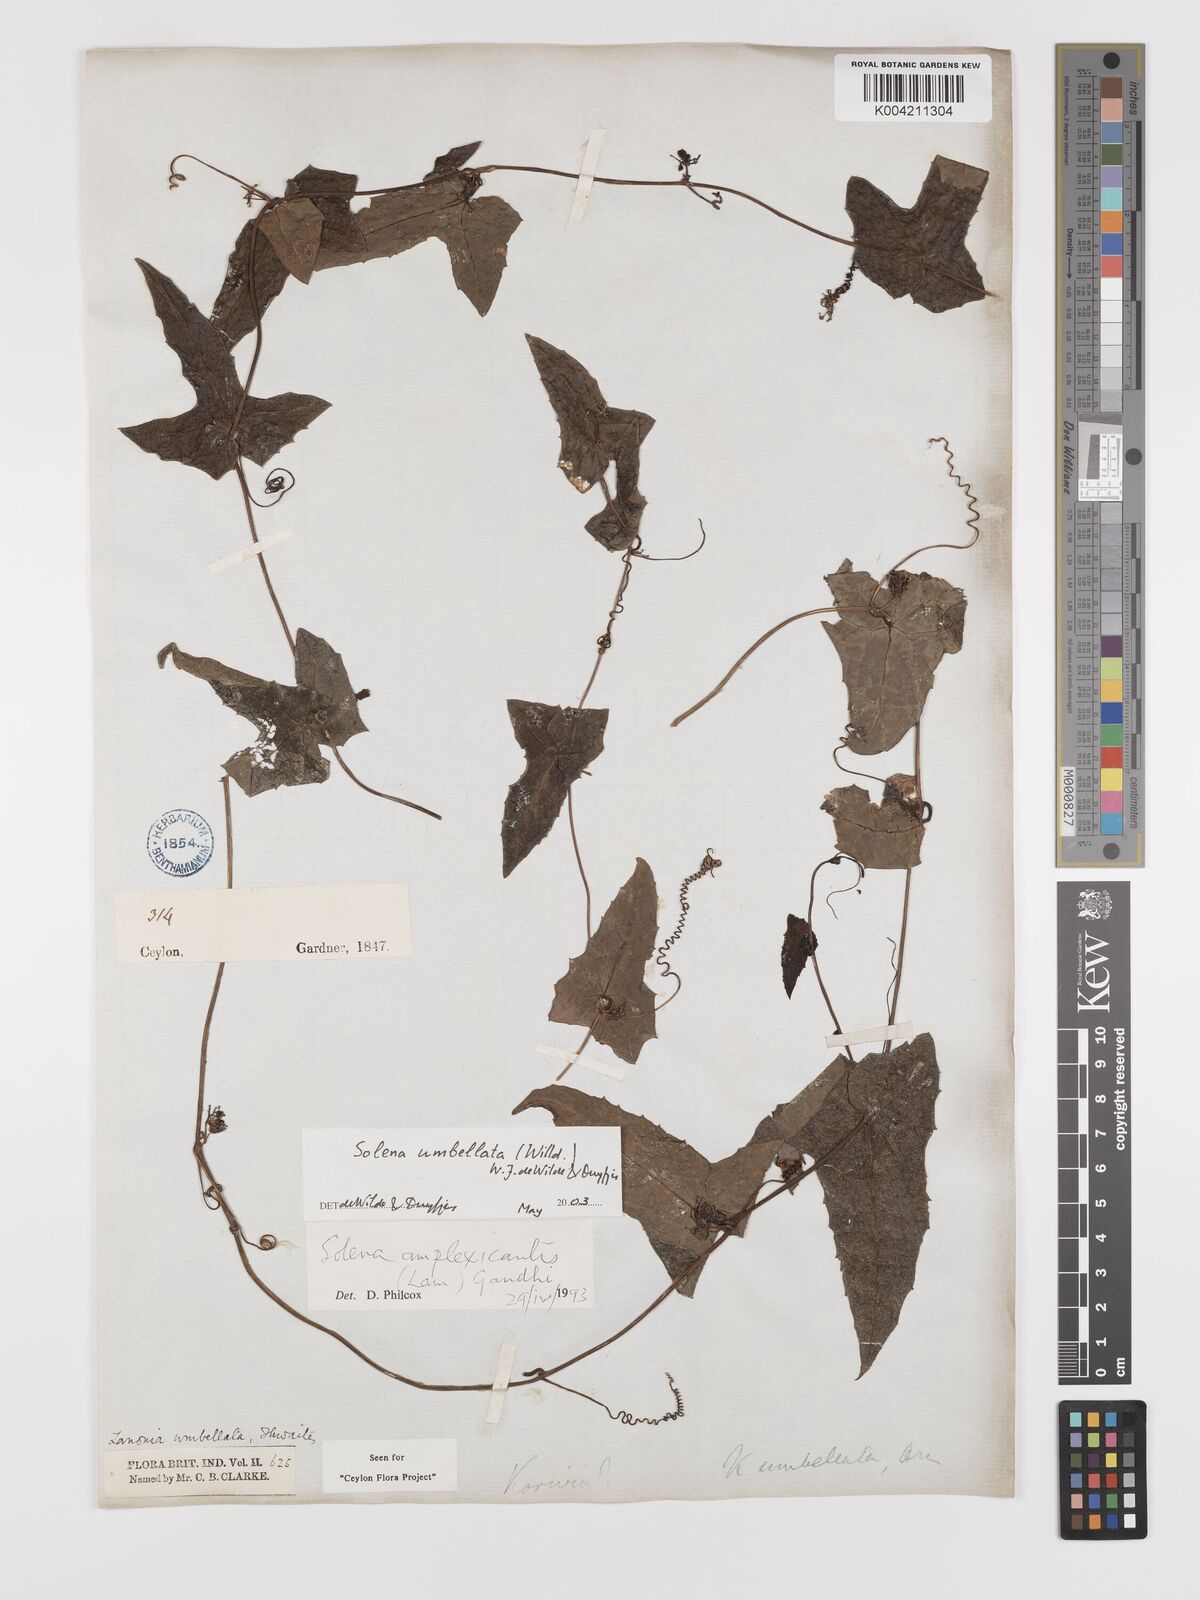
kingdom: Plantae
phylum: Tracheophyta
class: Magnoliopsida
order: Cucurbitales
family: Cucurbitaceae
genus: Solena
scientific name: Solena umbellata
